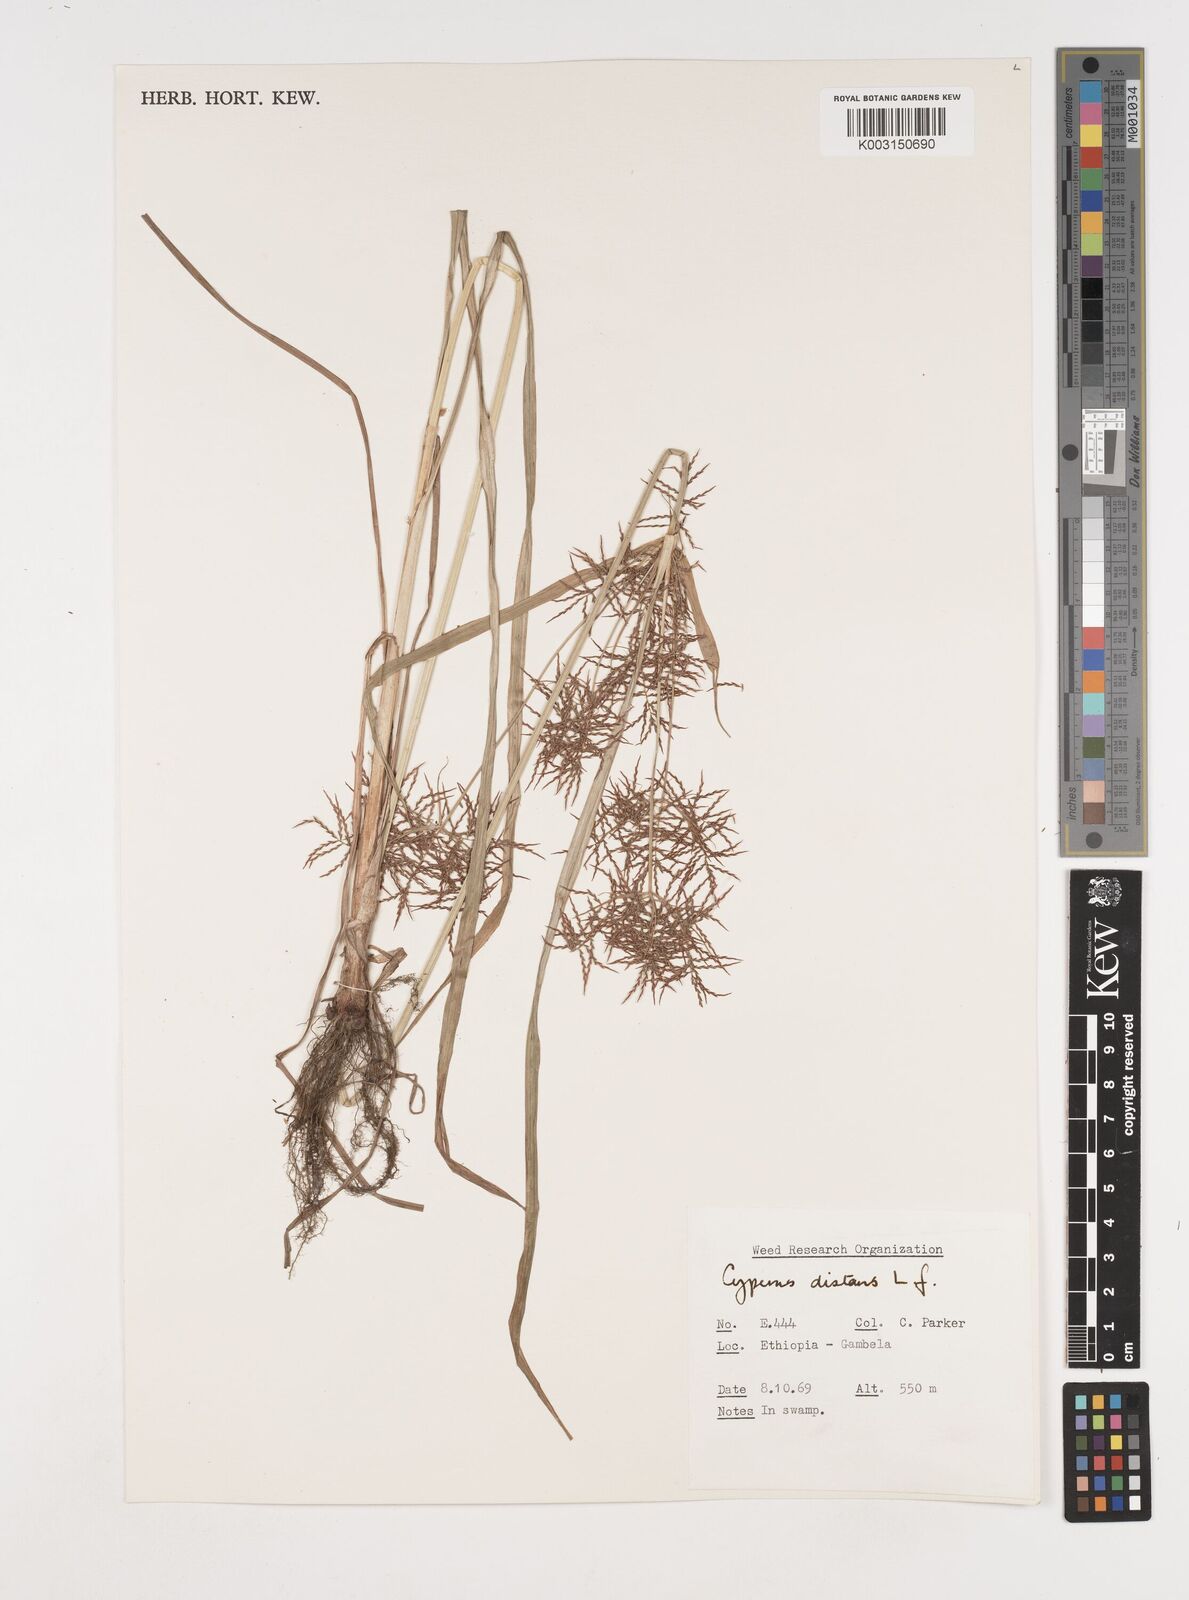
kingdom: Plantae
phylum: Tracheophyta
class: Liliopsida
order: Poales
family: Cyperaceae
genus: Cyperus
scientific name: Cyperus distans
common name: Slender cyperus
